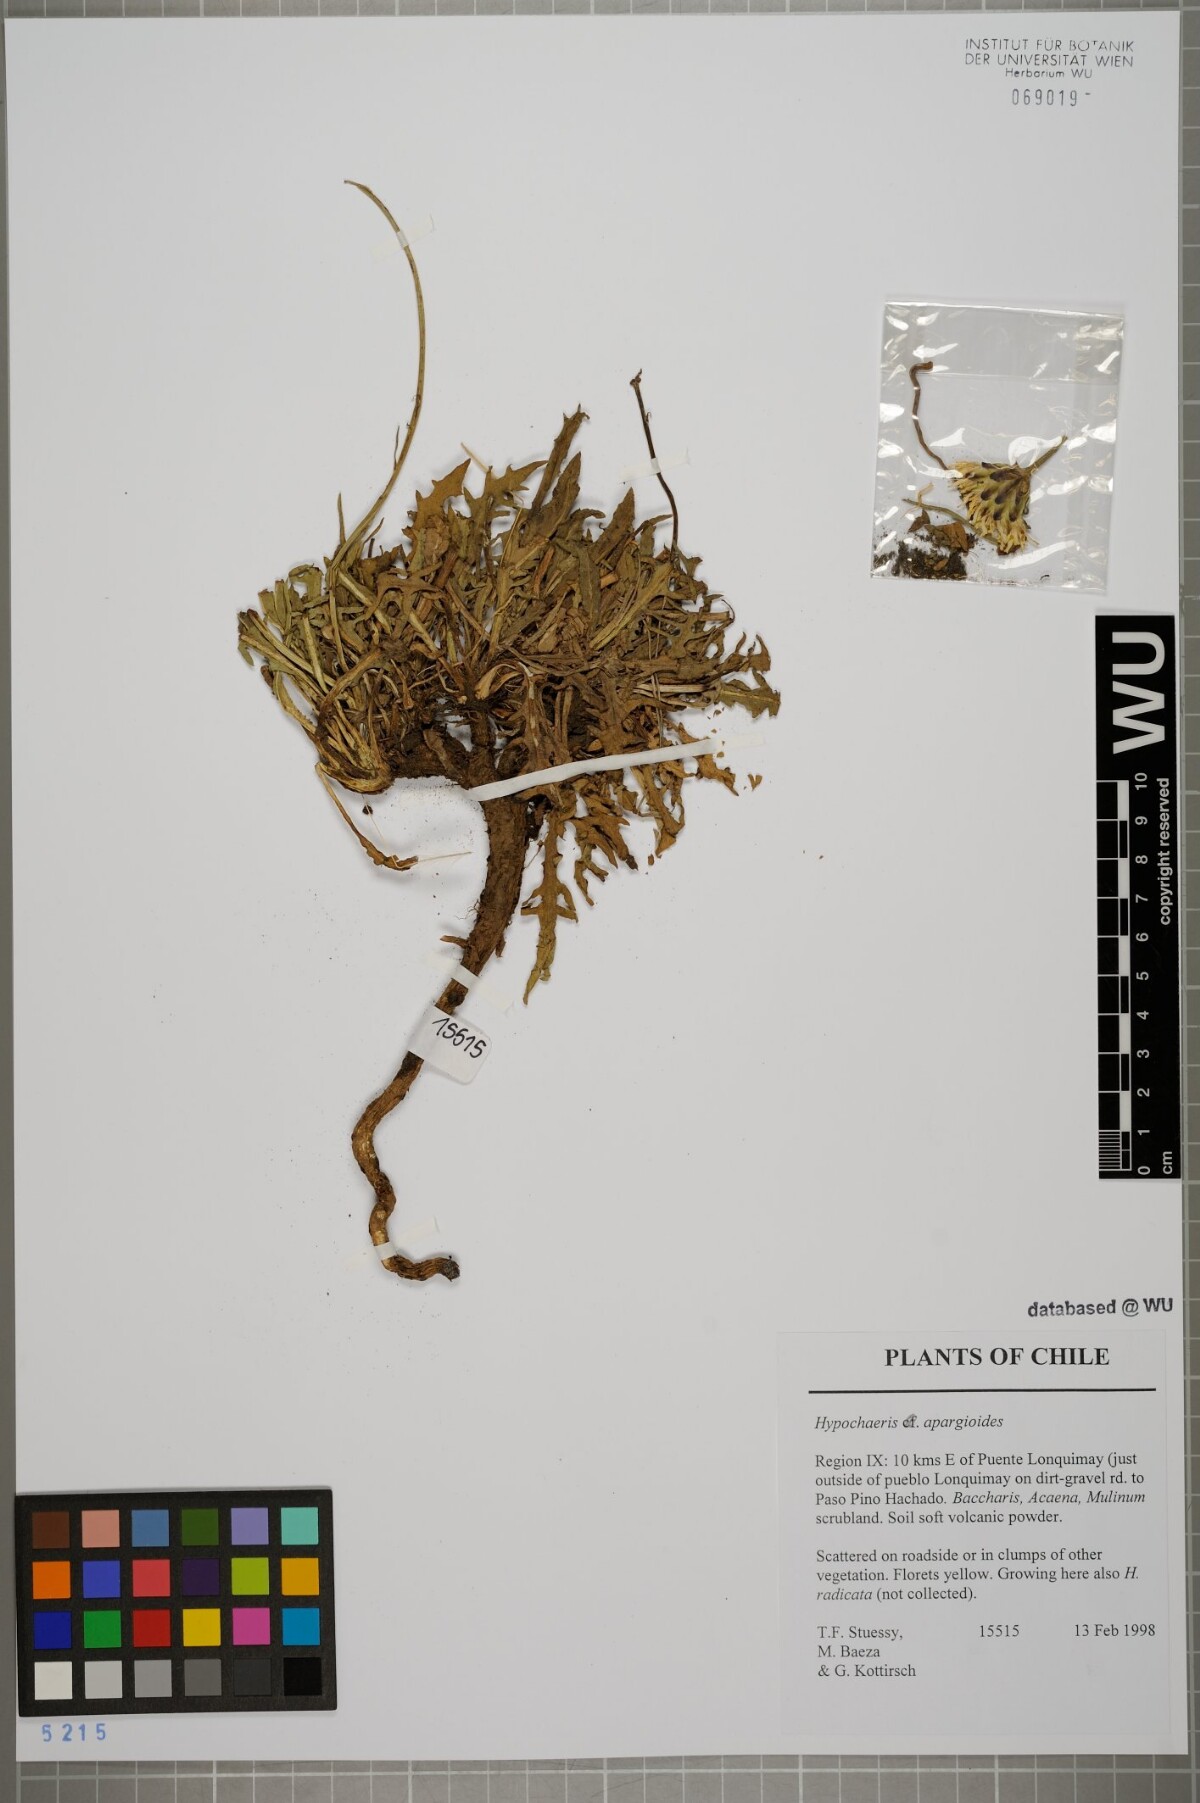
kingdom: Plantae
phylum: Tracheophyta
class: Magnoliopsida
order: Asterales
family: Asteraceae
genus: Hypochaeris
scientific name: Hypochaeris apargioides
